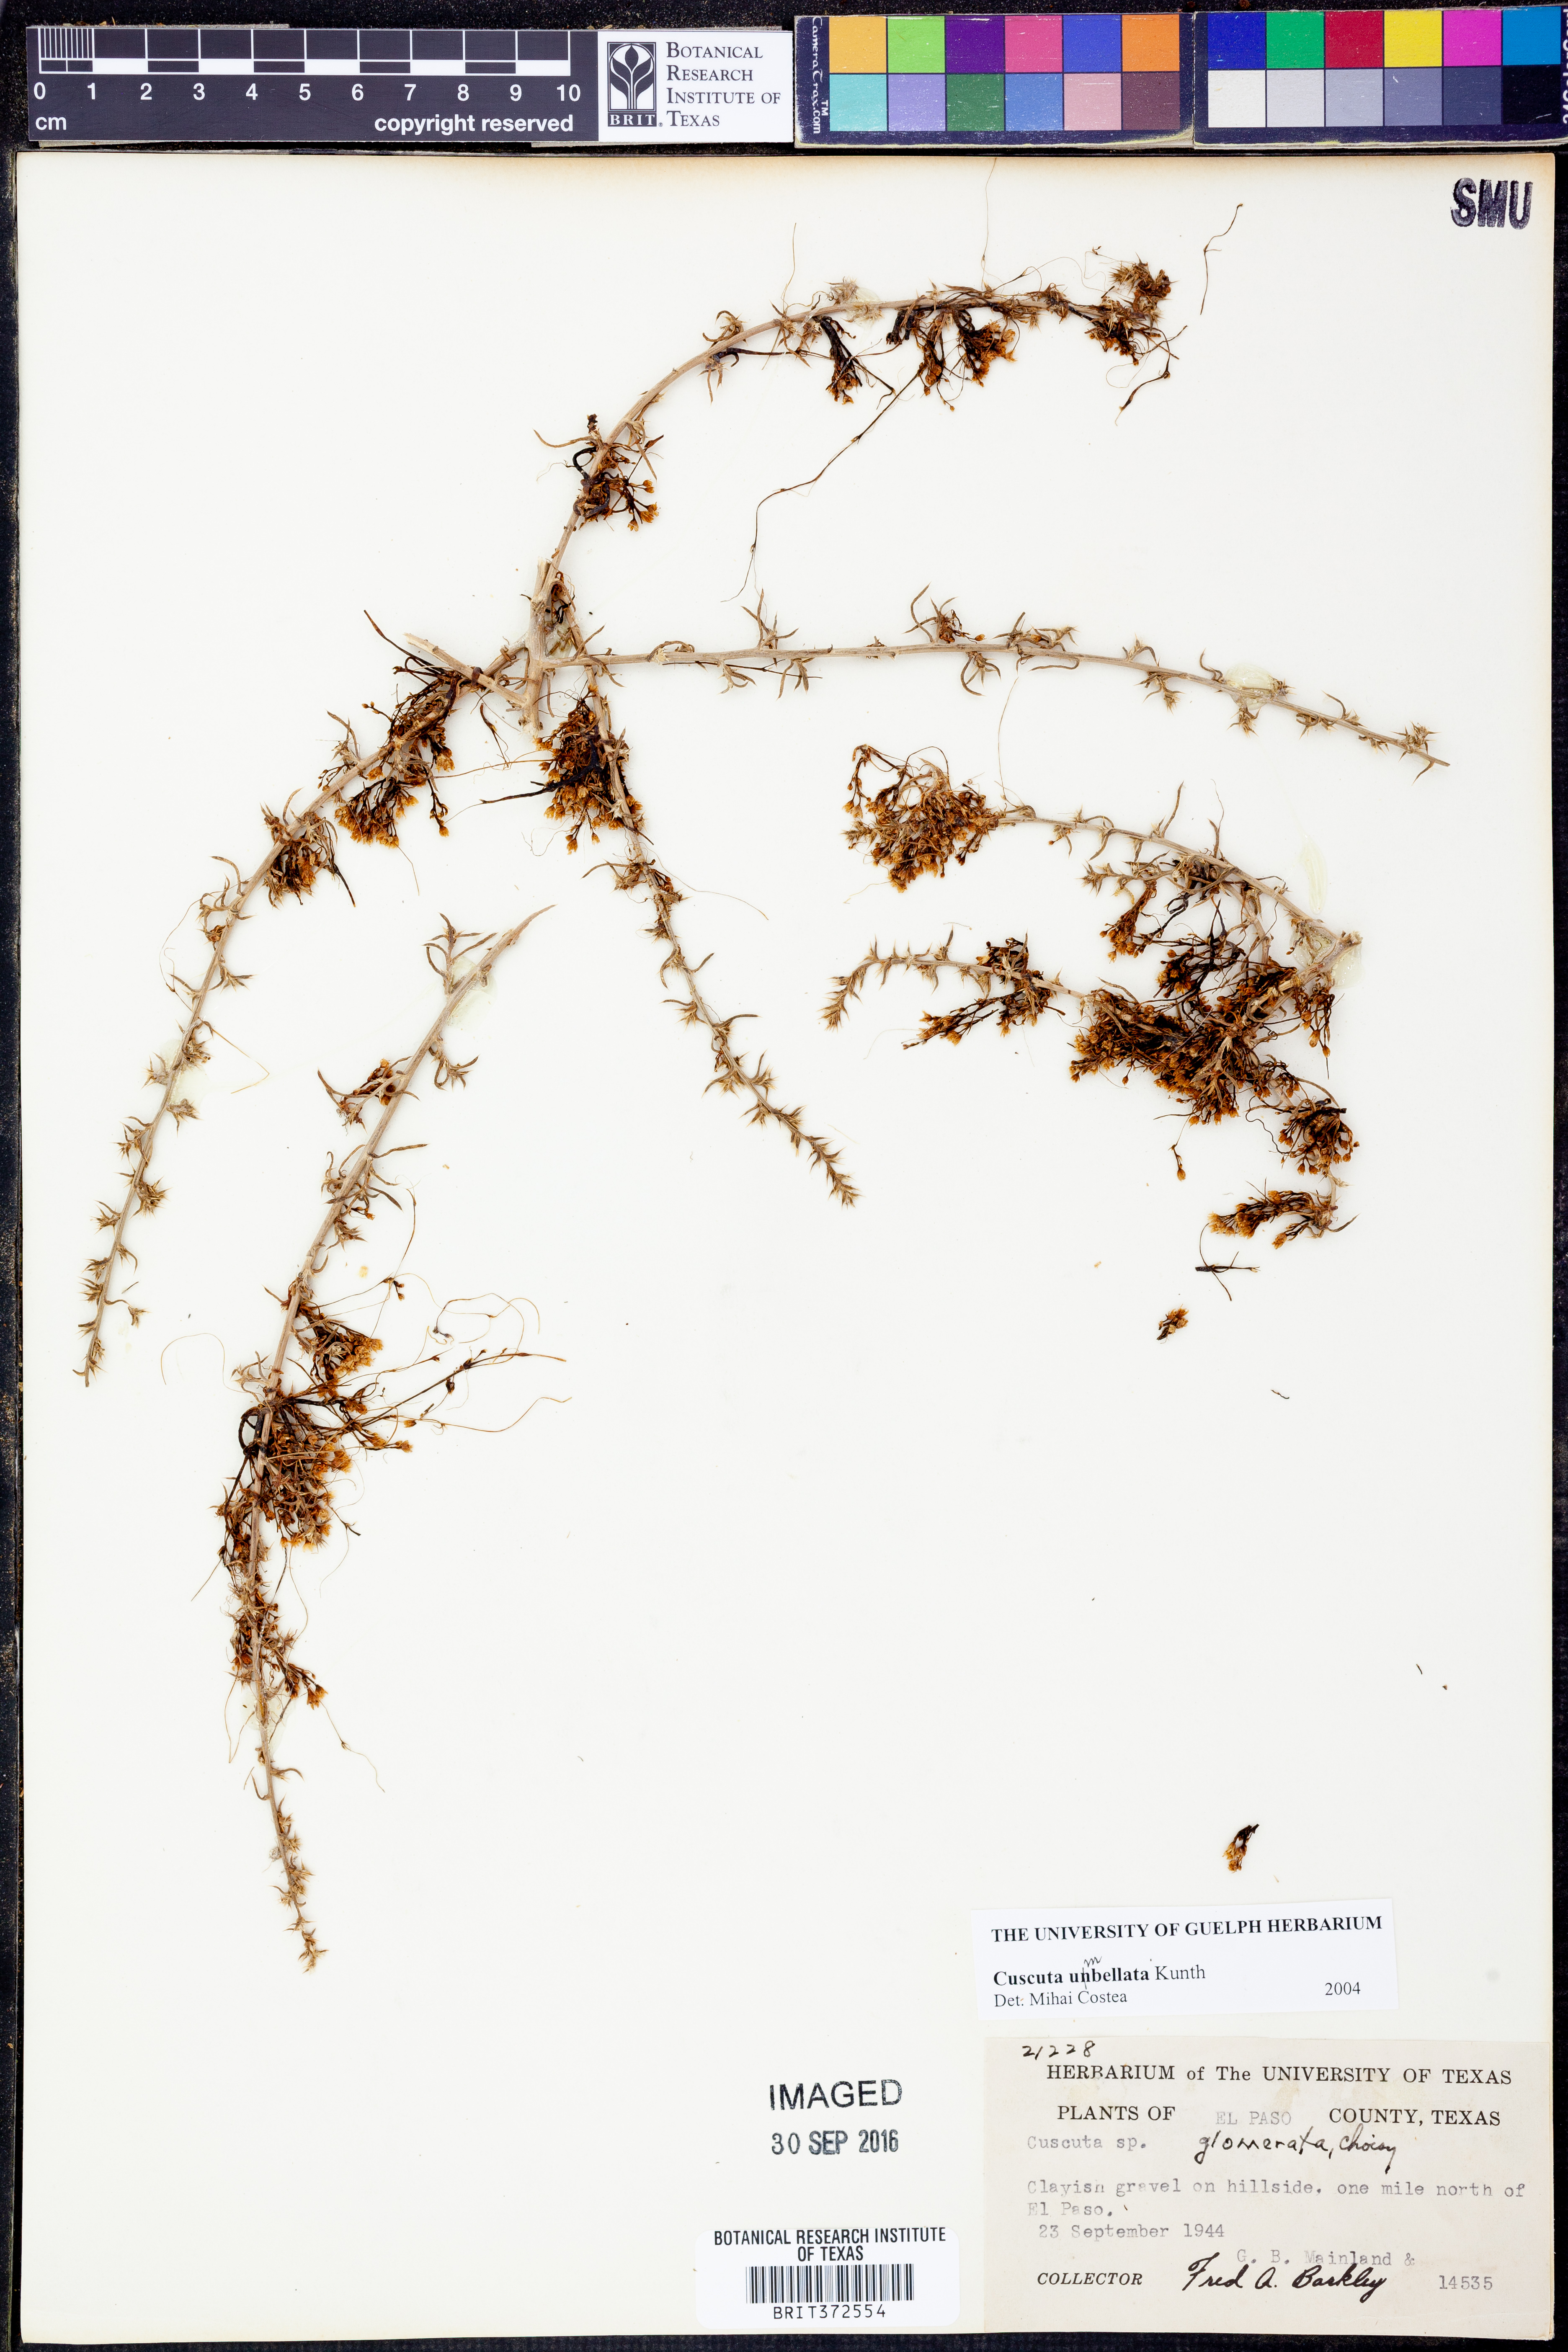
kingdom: Plantae
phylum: Tracheophyta
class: Magnoliopsida
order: Solanales
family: Convolvulaceae
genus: Cuscuta
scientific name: Cuscuta umbellata
